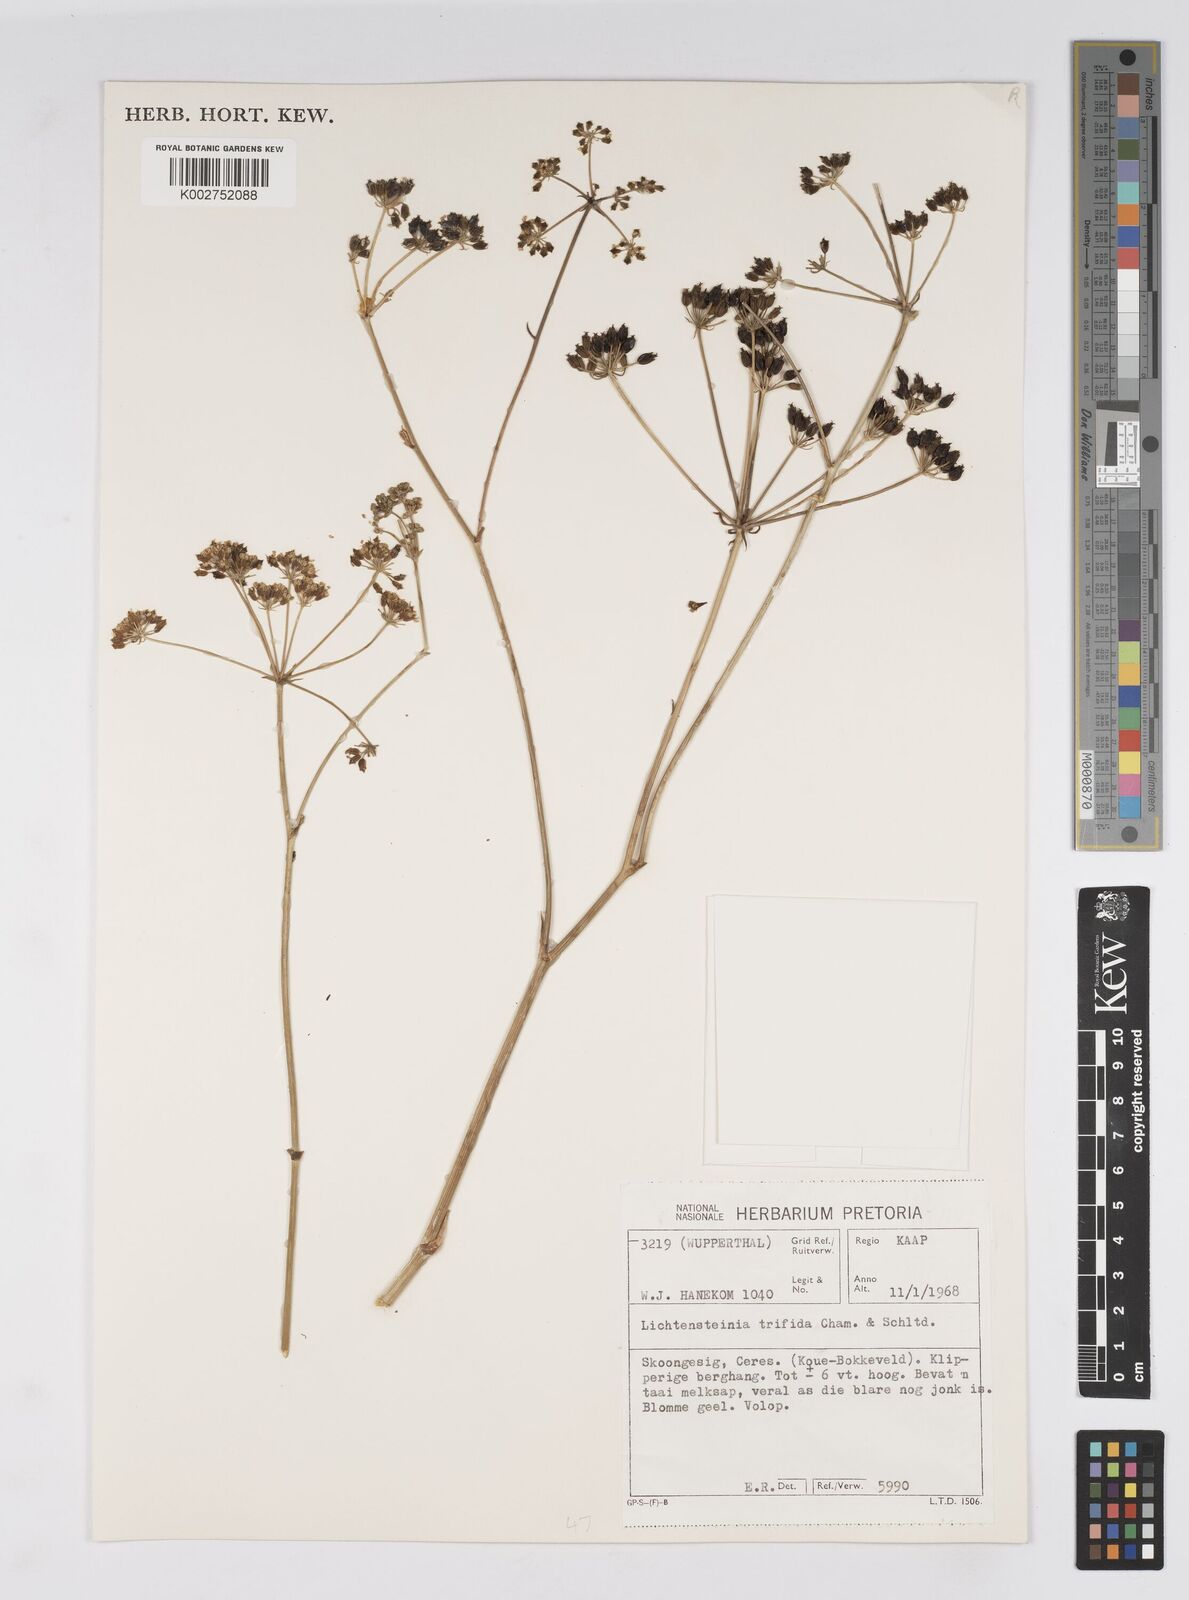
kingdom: Plantae
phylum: Tracheophyta
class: Magnoliopsida
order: Apiales
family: Apiaceae
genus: Lichtensteinia
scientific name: Lichtensteinia trifida
